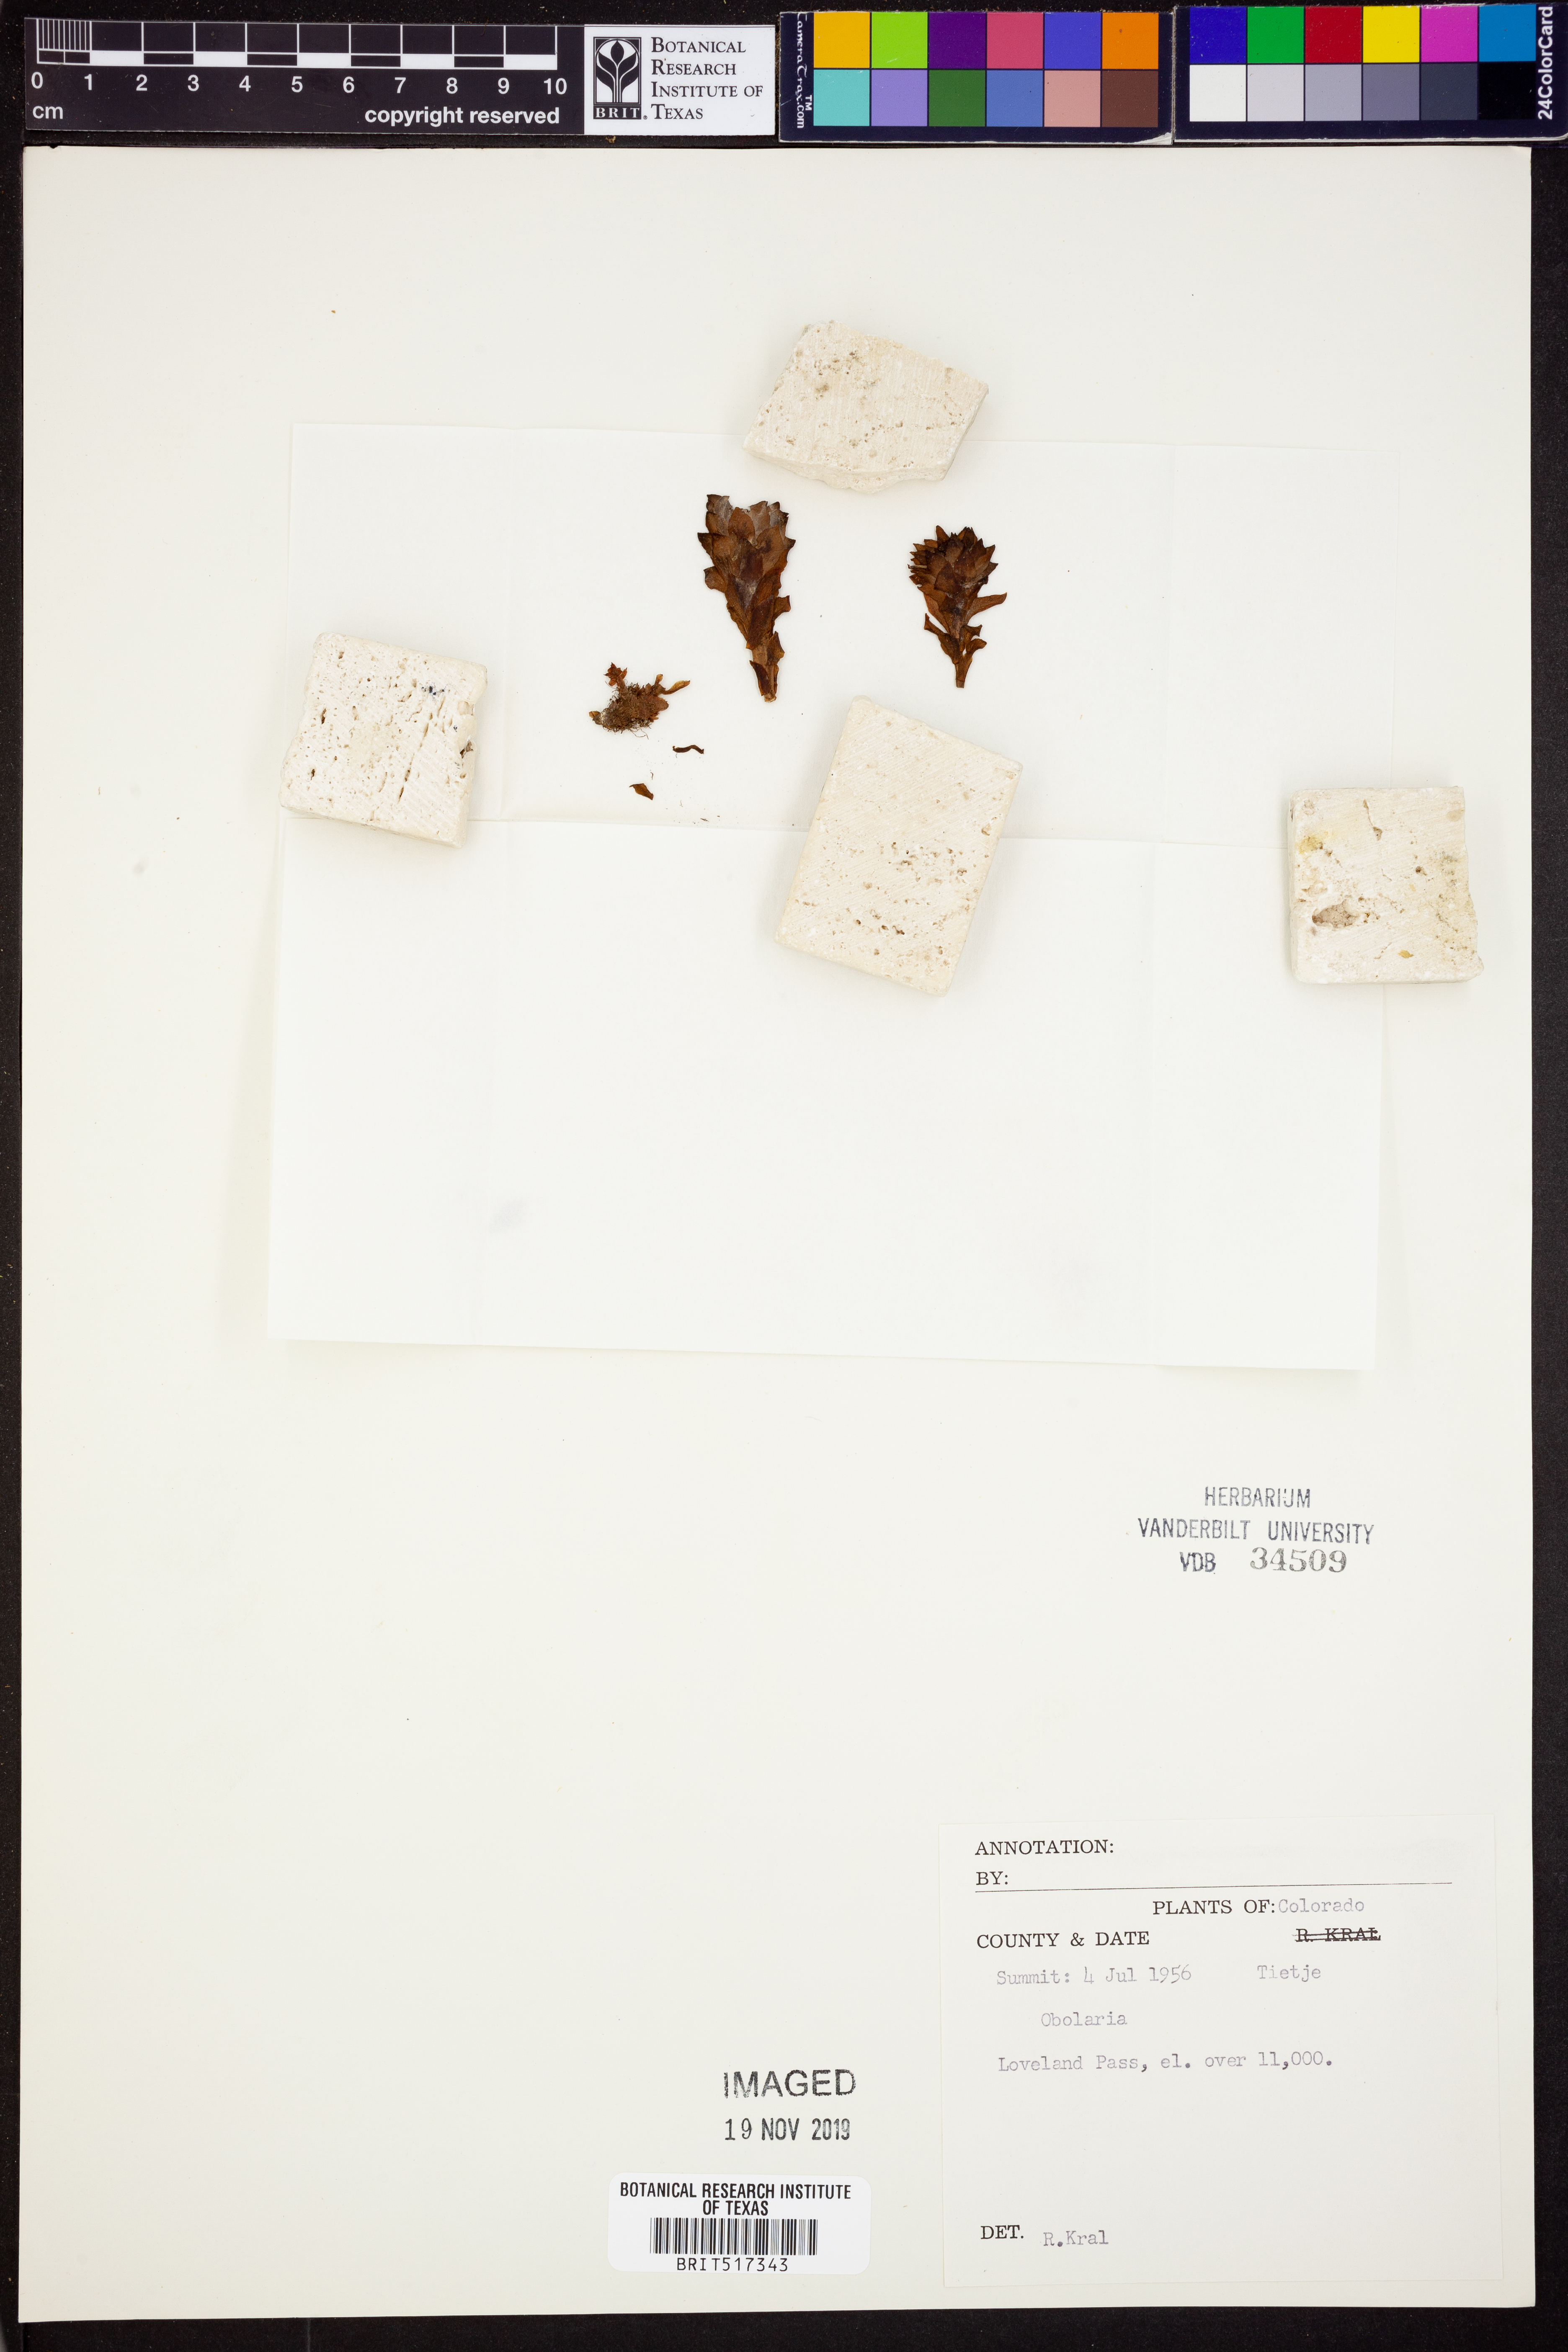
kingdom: Plantae
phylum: Tracheophyta
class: Magnoliopsida
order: Gentianales
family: Gentianaceae
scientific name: Gentianaceae
